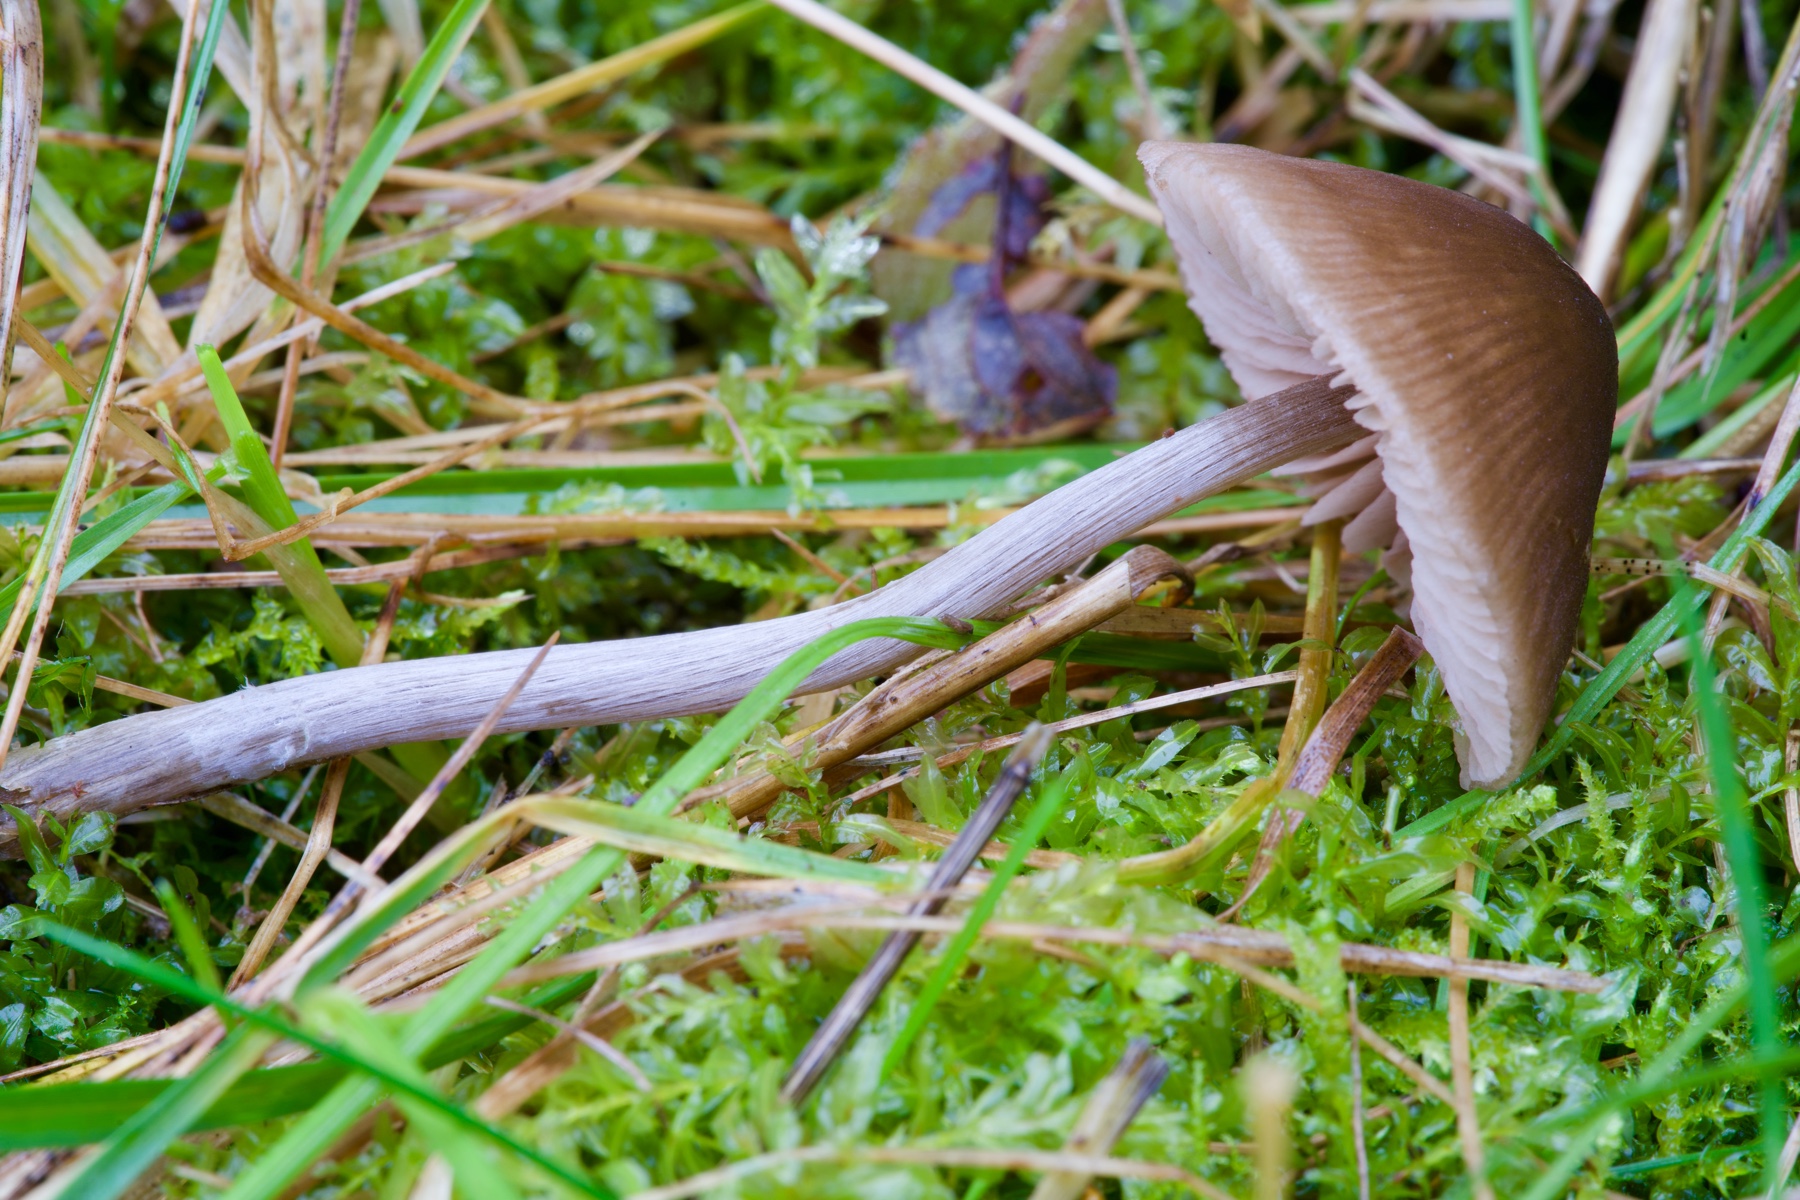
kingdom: Fungi
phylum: Basidiomycota
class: Agaricomycetes
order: Agaricales
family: Entolomataceae
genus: Entoloma
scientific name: Entoloma conferendum
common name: stjernesporet rødblad
